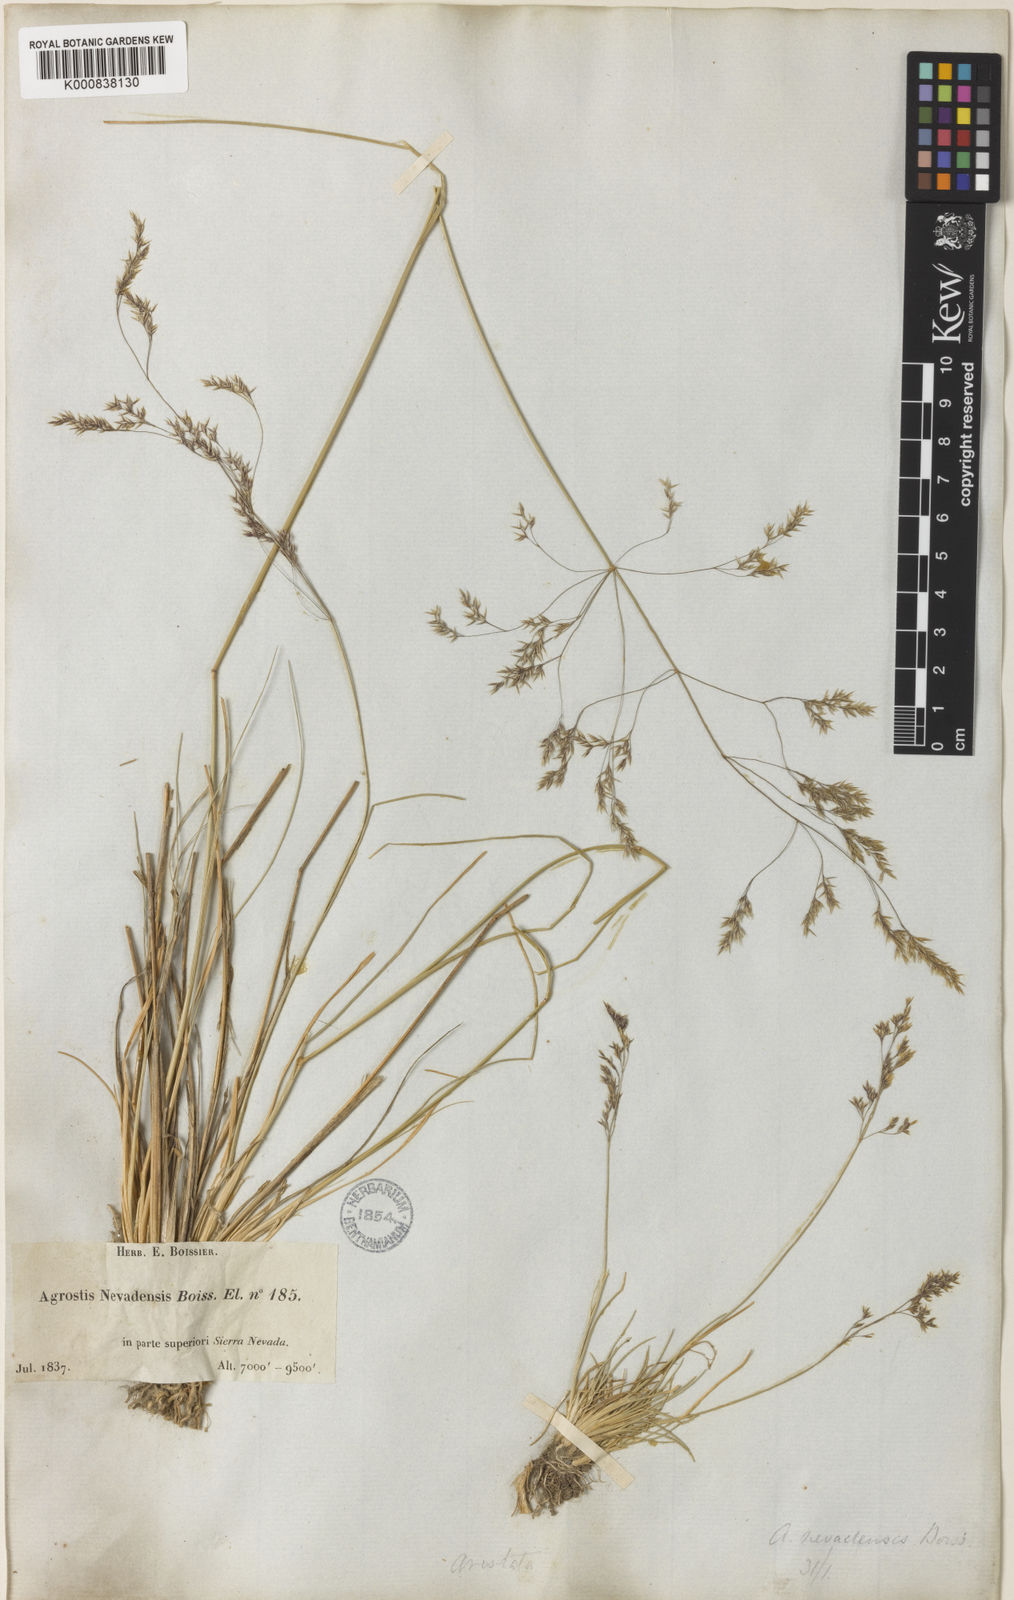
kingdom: Plantae
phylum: Tracheophyta
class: Liliopsida
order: Poales
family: Poaceae
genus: Agrostis
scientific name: Agrostis nevadensis
